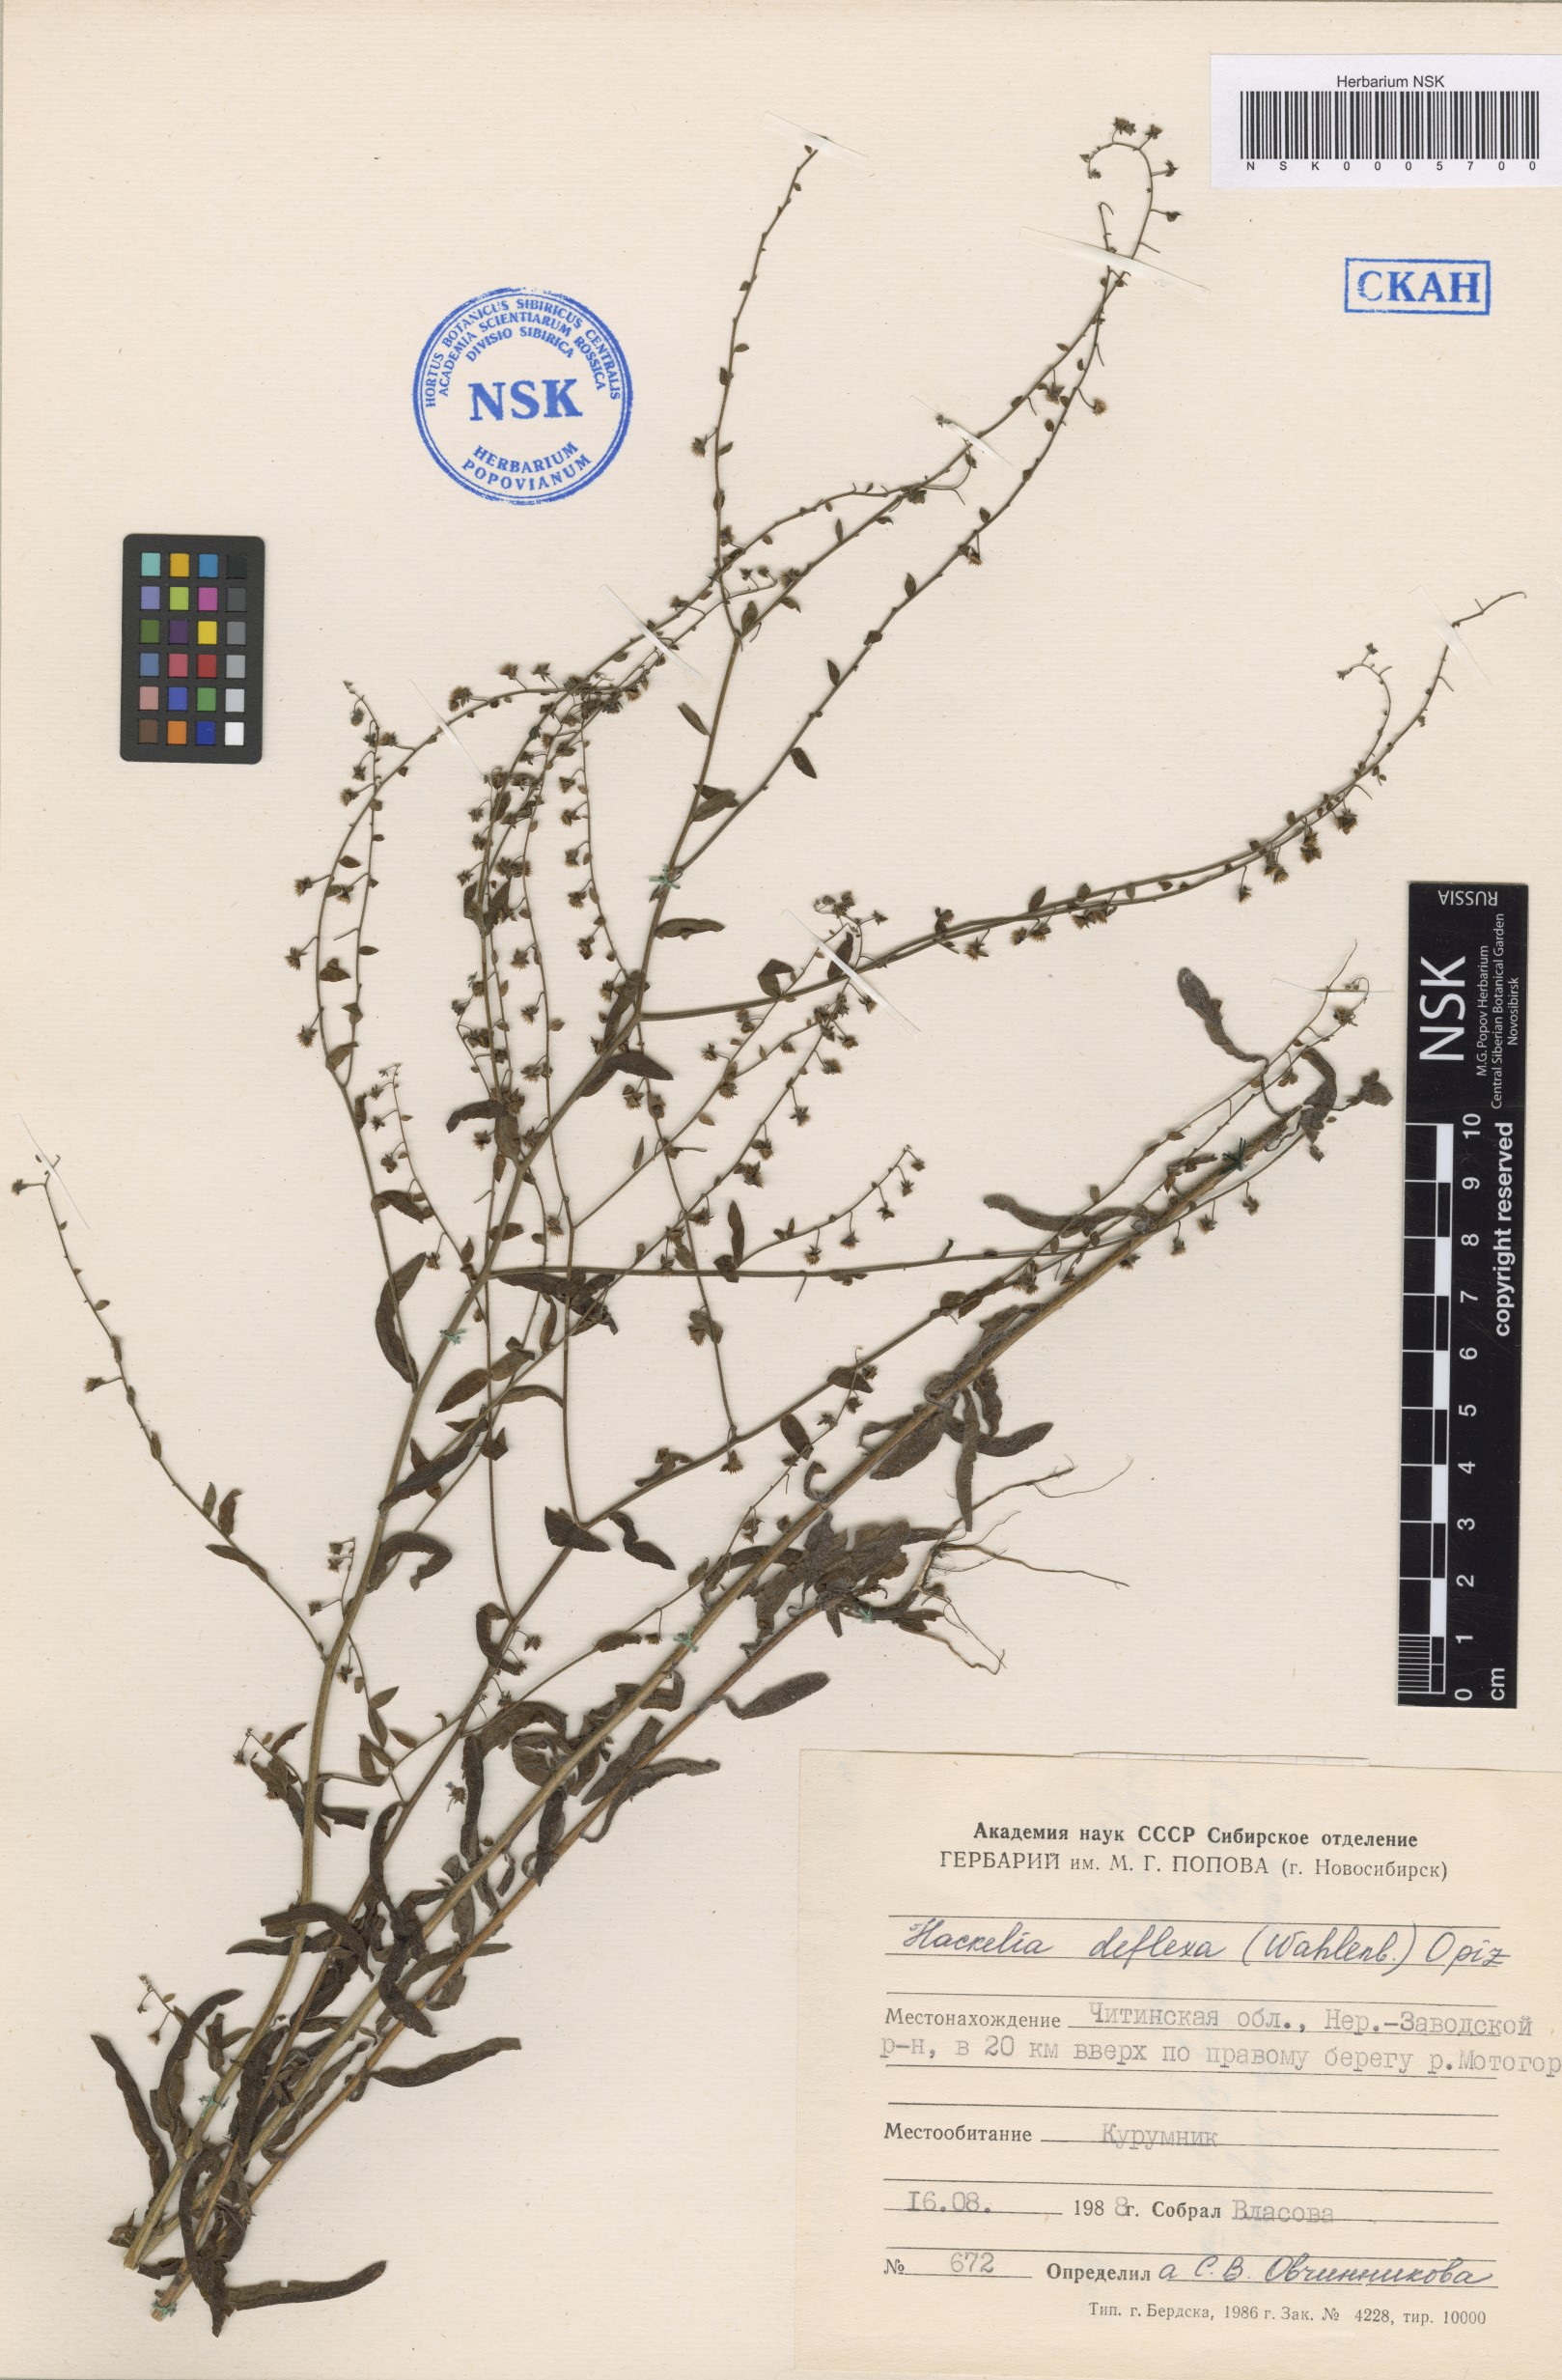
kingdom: Plantae
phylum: Tracheophyta
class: Magnoliopsida
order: Boraginales
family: Boraginaceae
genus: Hackelia
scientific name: Hackelia deflexa
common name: Nodding stickseed
